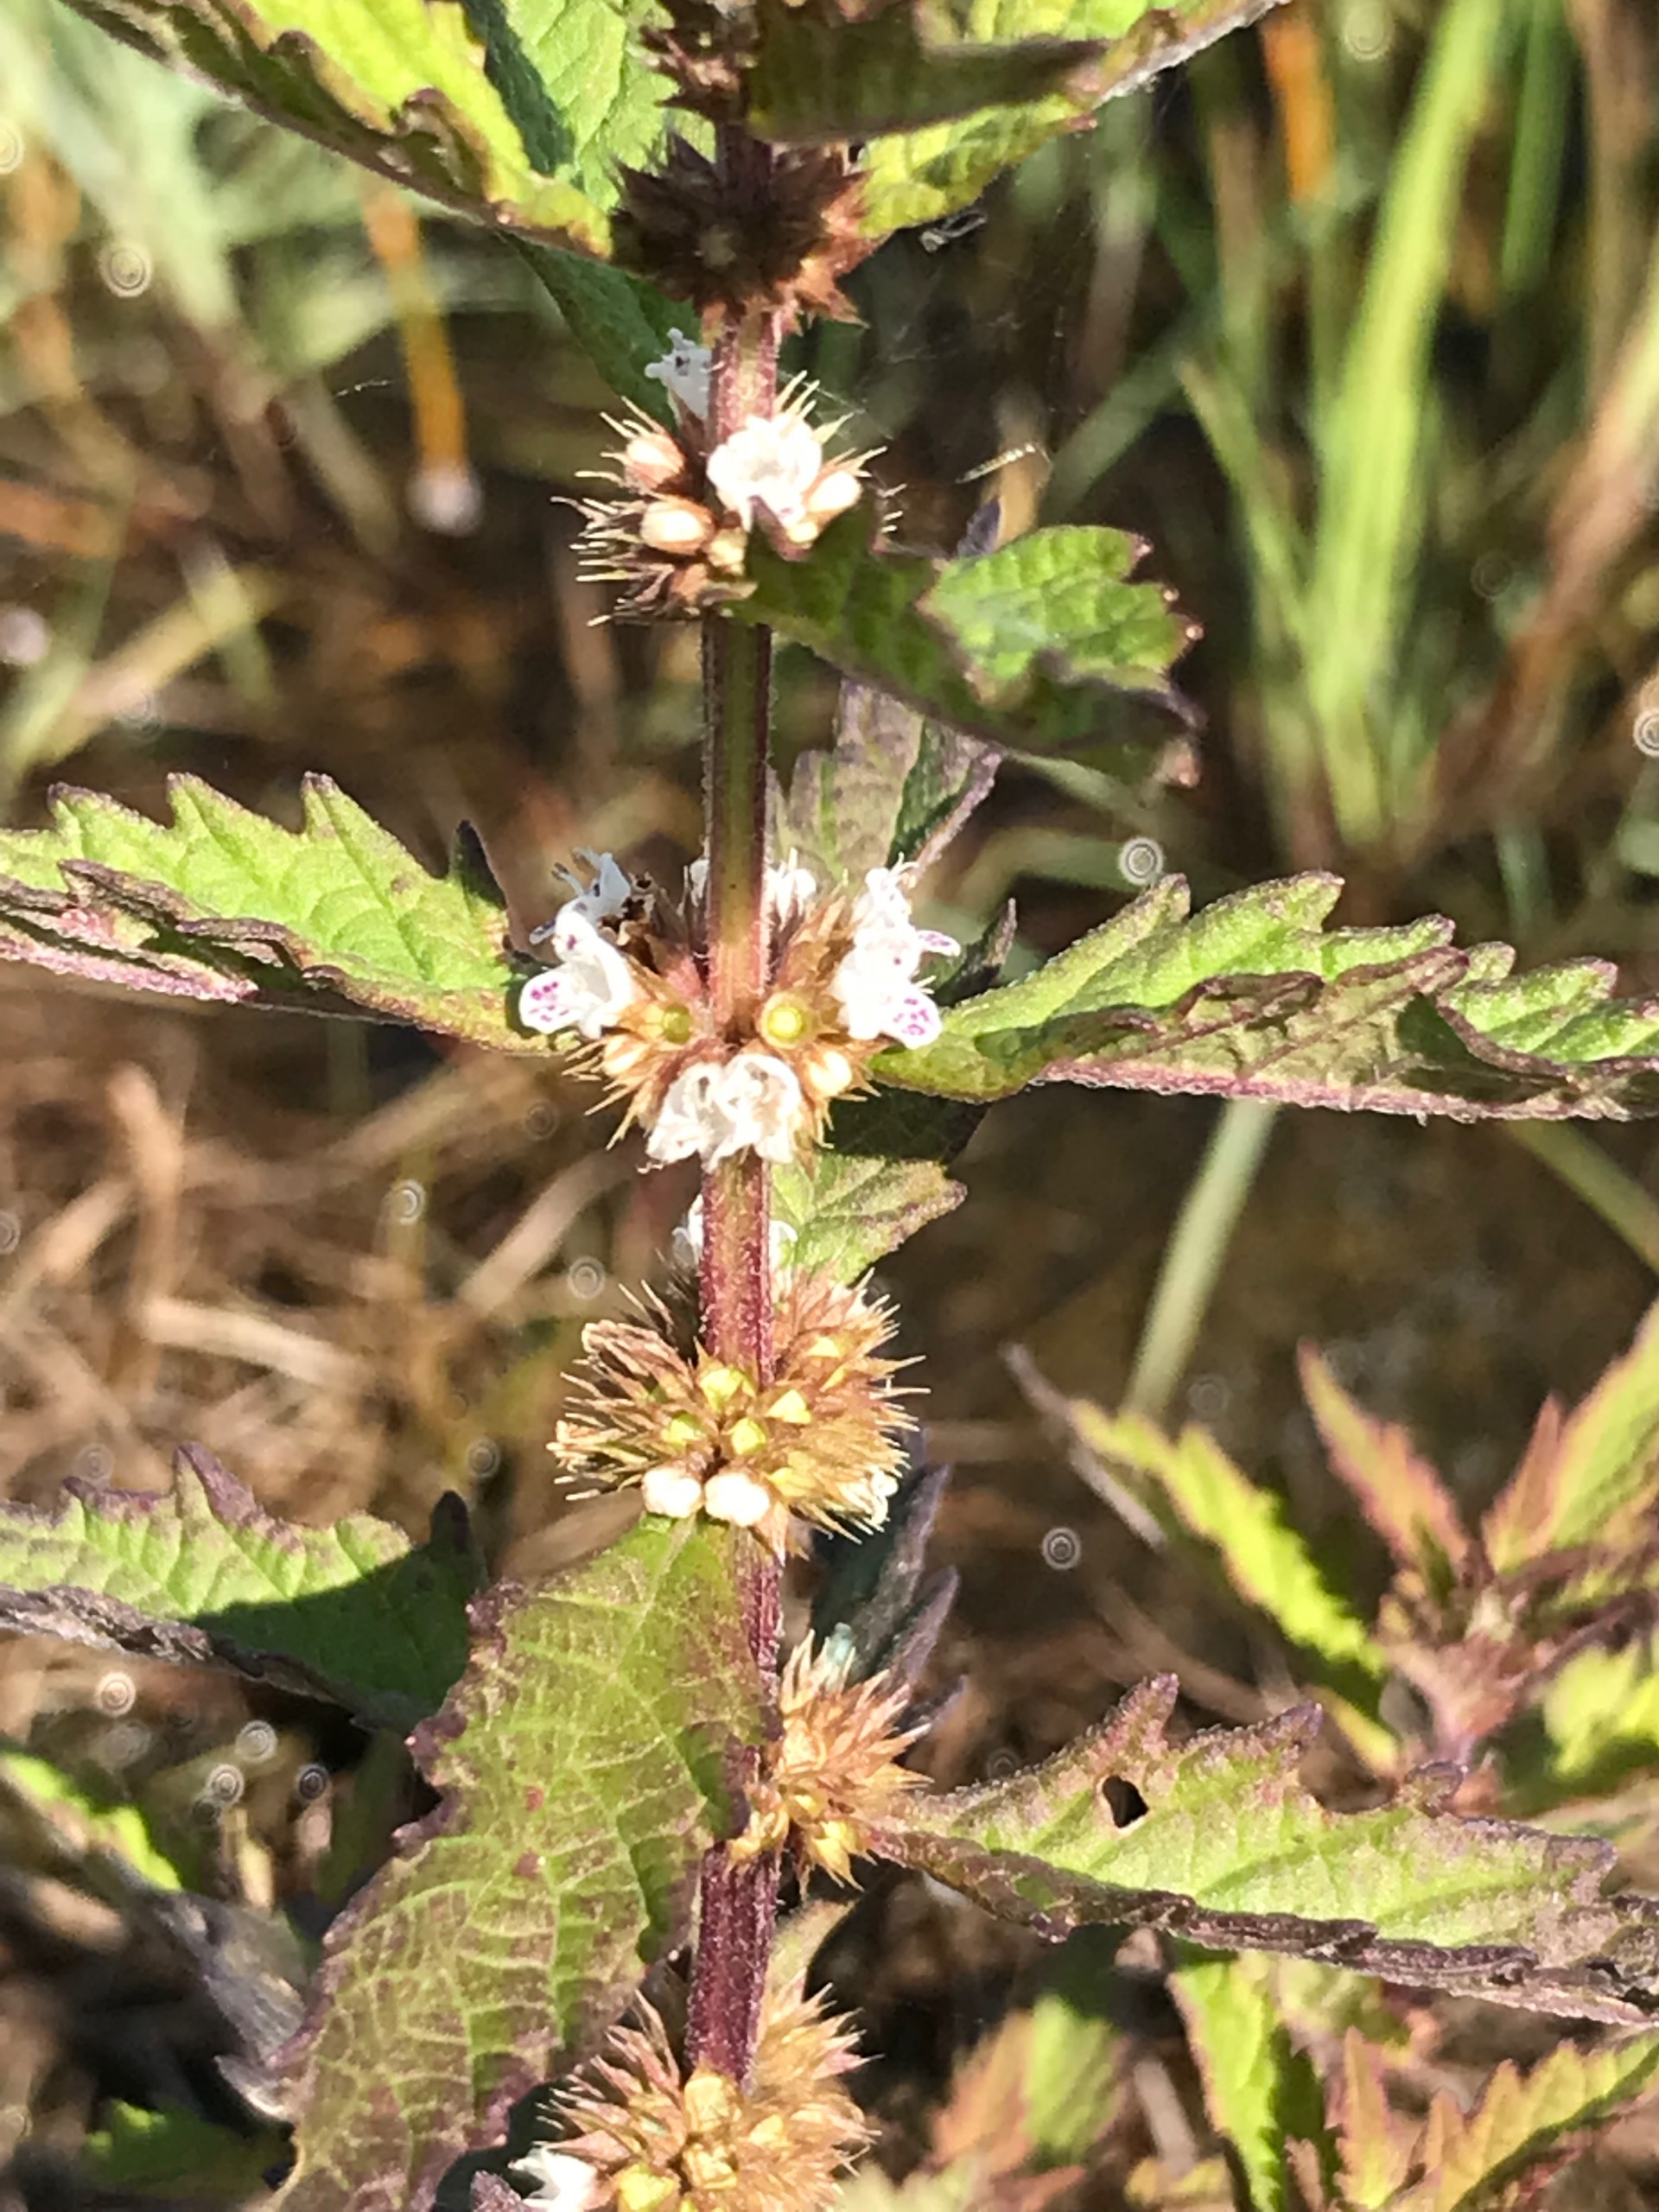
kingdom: Plantae
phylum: Tracheophyta
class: Magnoliopsida
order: Lamiales
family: Lamiaceae
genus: Lycopus
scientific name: Lycopus europaeus
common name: Sværtevæld
